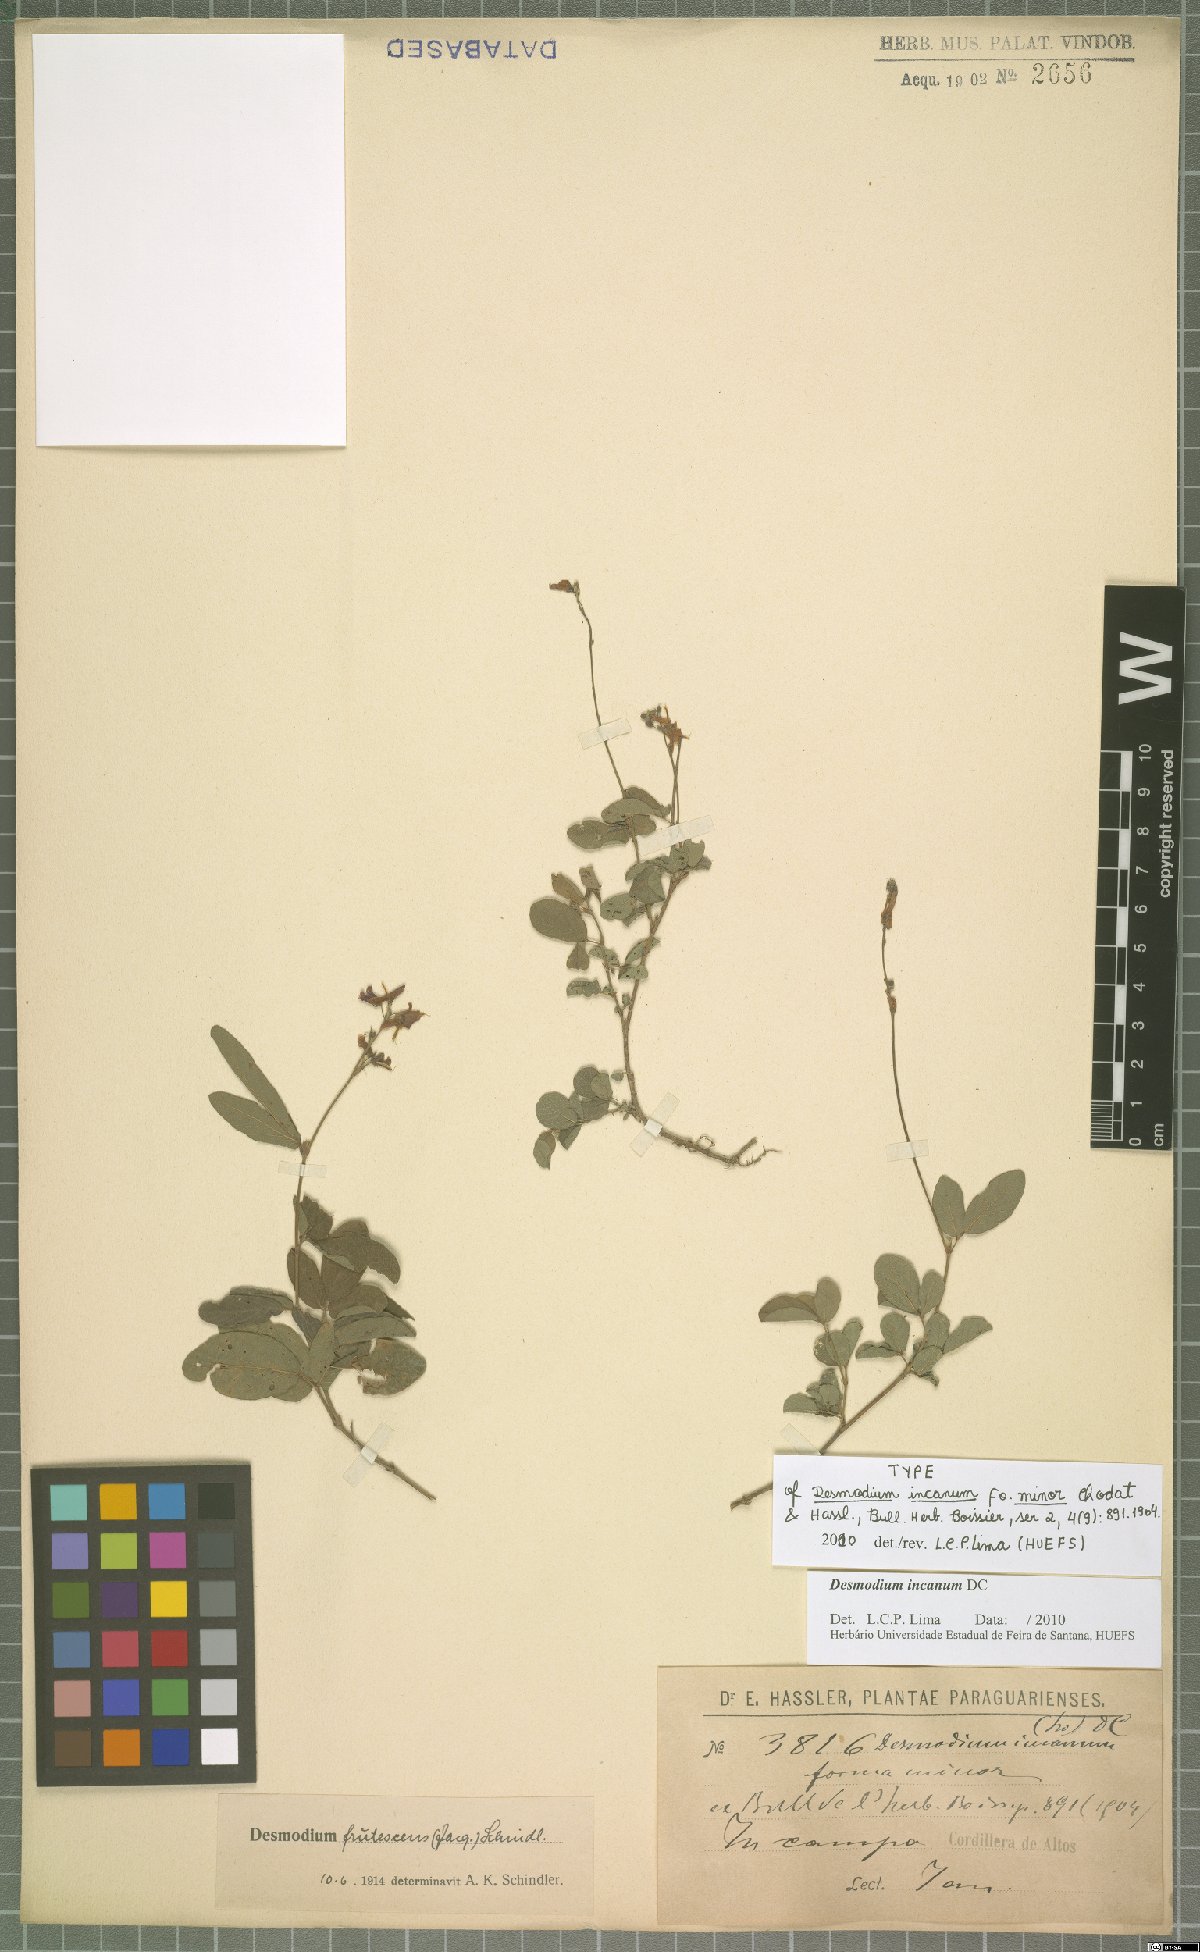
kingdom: Plantae
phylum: Tracheophyta
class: Magnoliopsida
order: Fabales
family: Fabaceae
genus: Desmodium
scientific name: Desmodium incanum
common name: Tickclover
